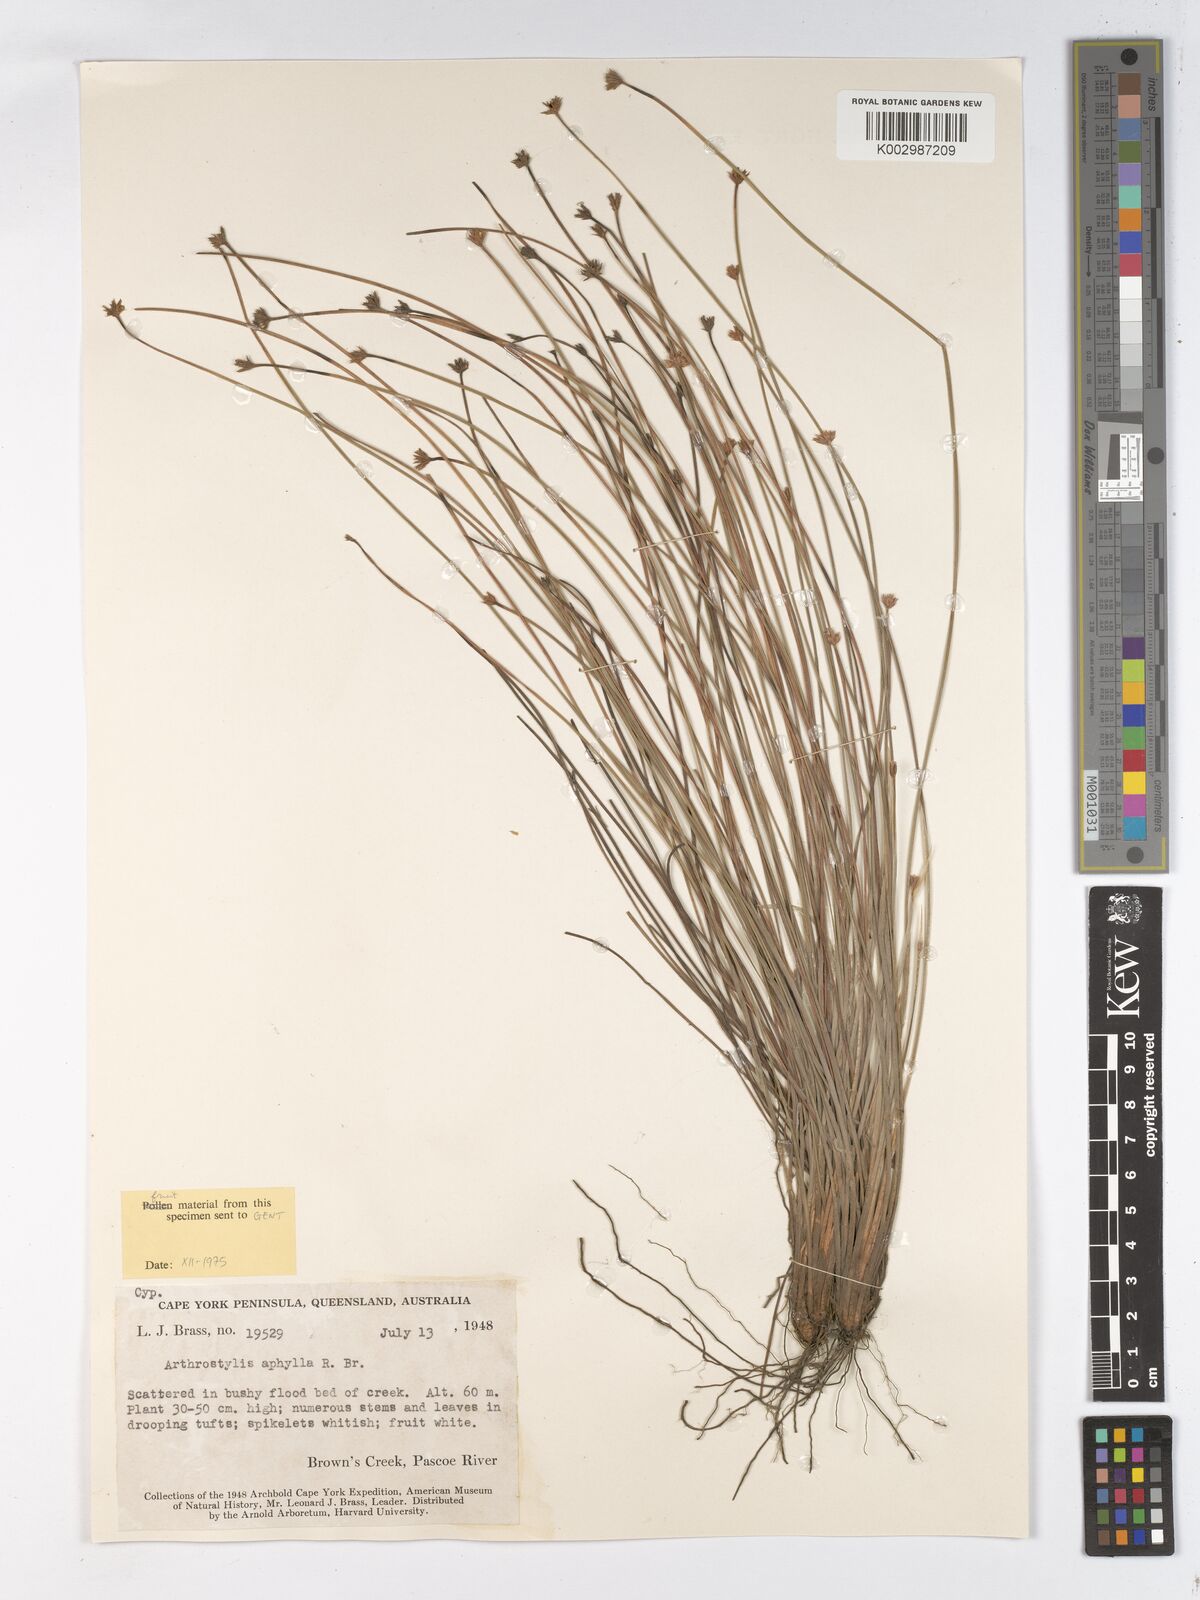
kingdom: Plantae
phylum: Tracheophyta
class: Liliopsida
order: Poales
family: Cyperaceae
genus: Arthrostylis
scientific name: Arthrostylis aphylla
